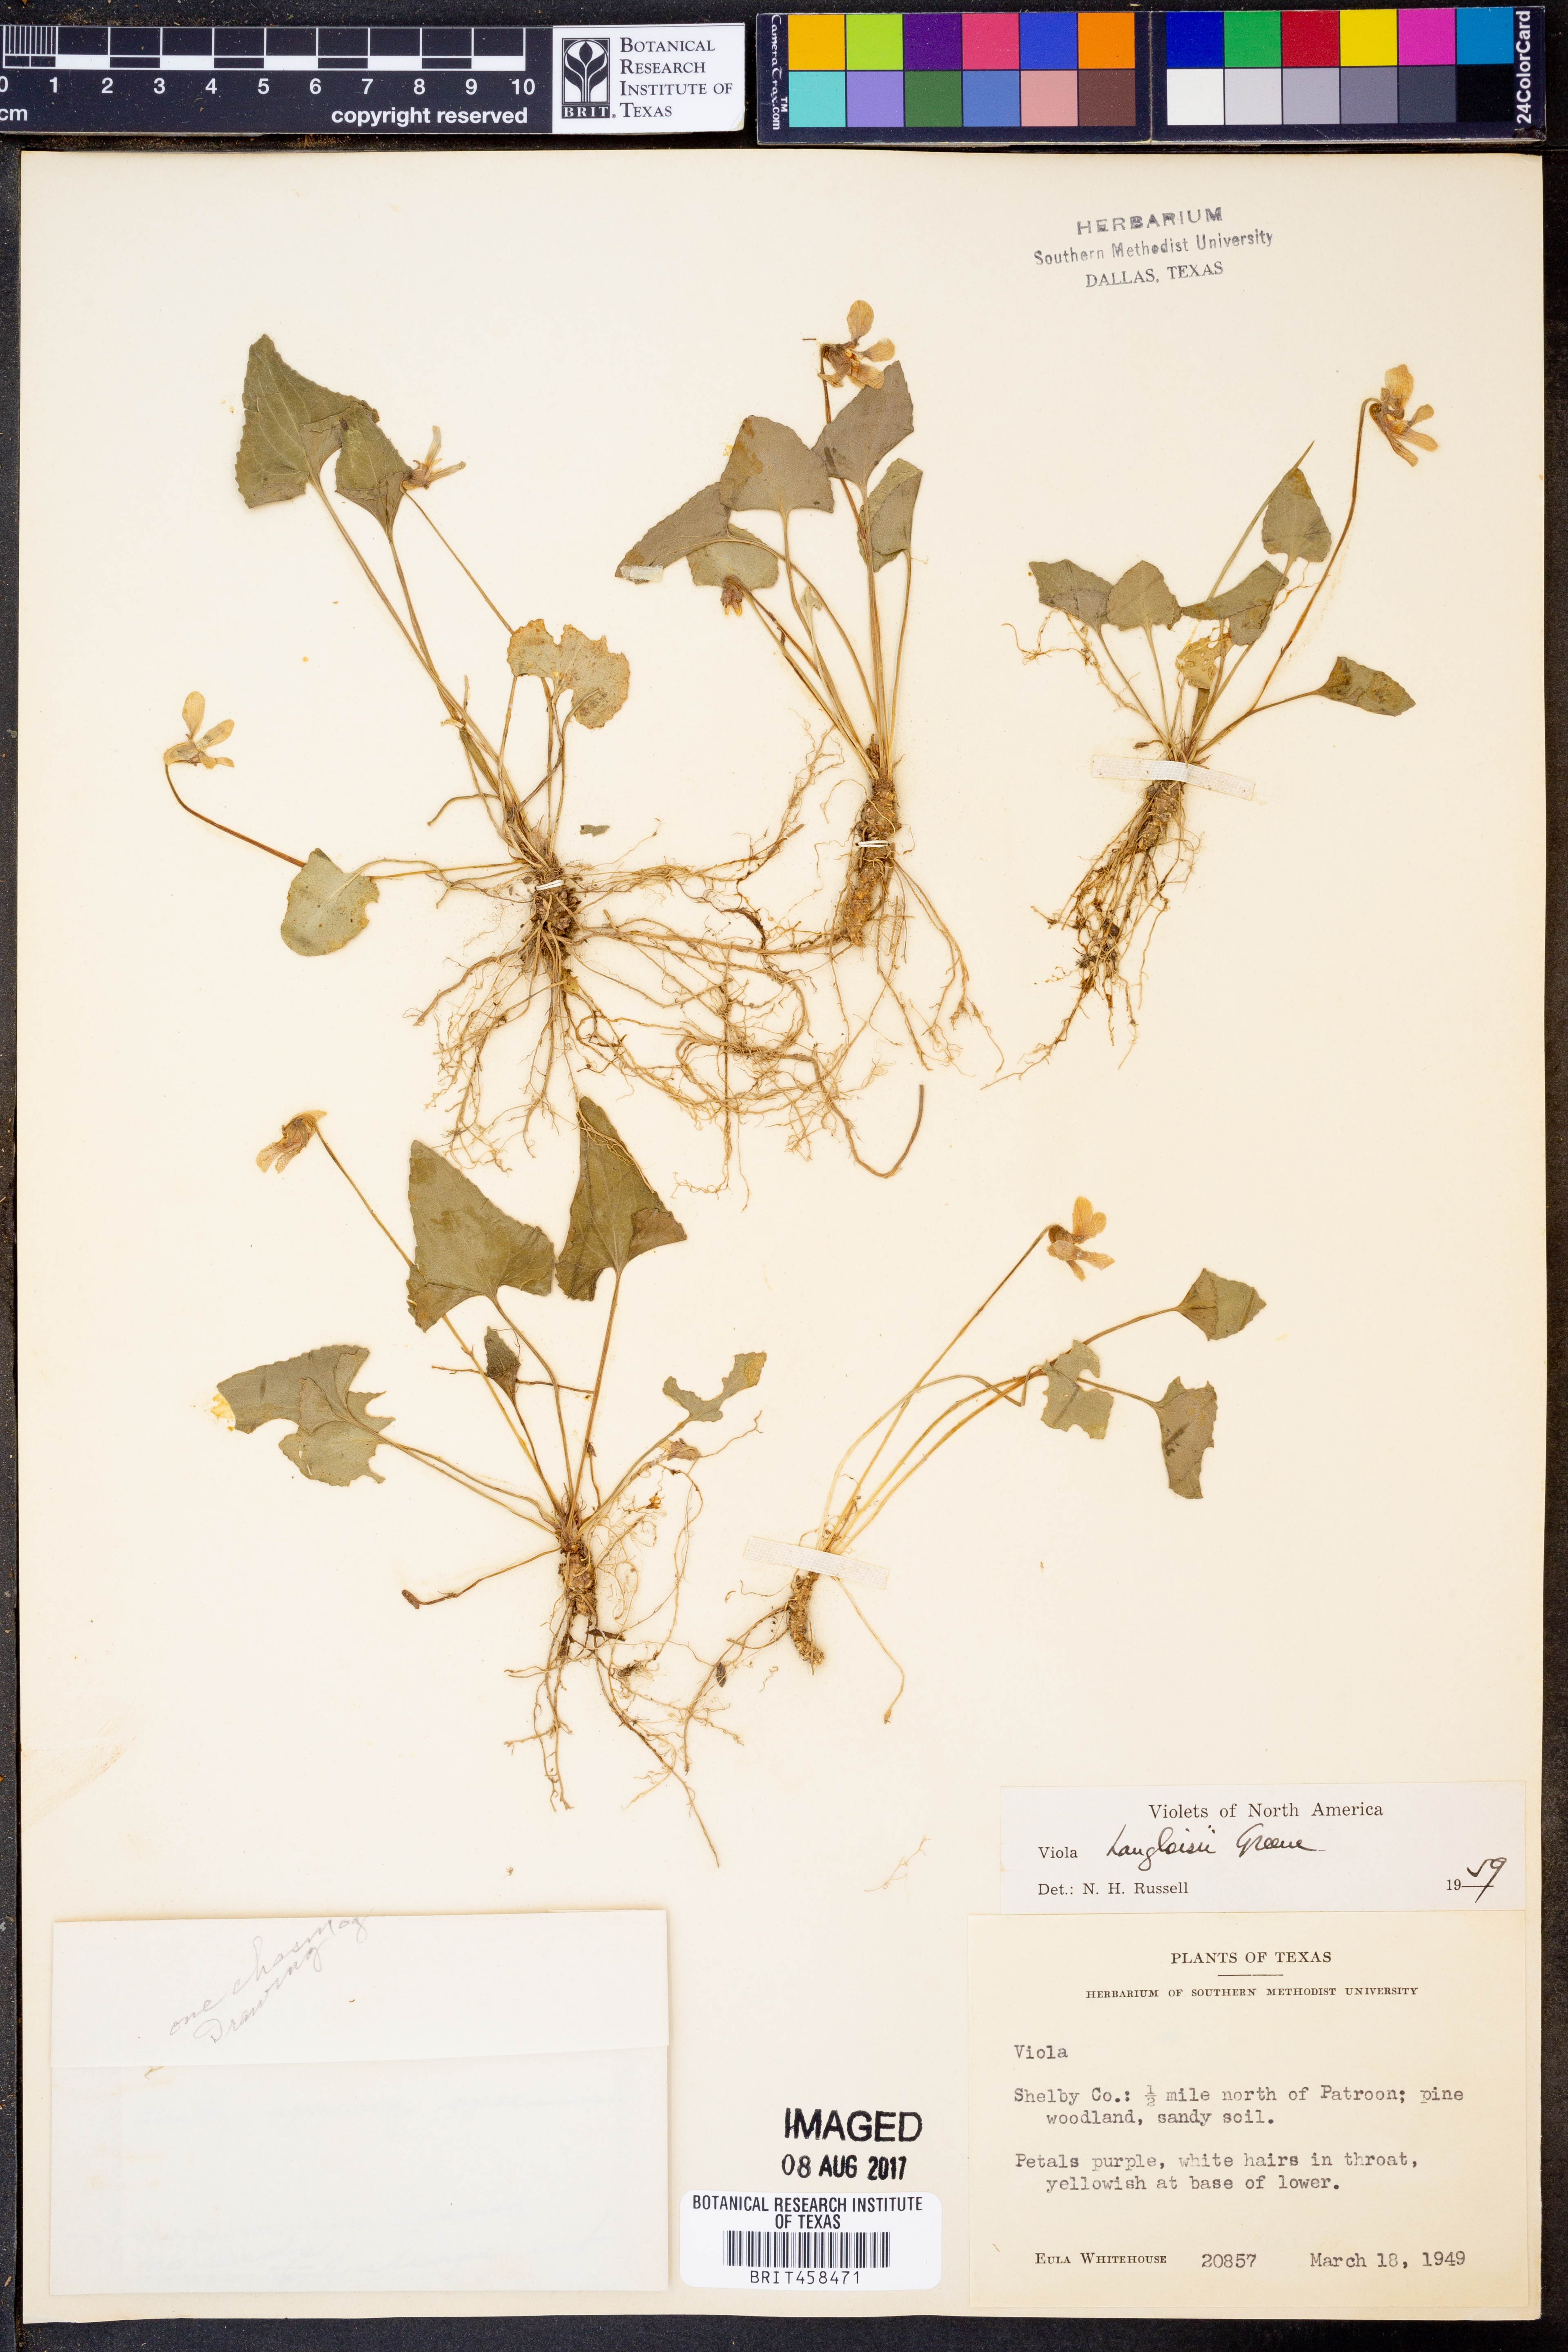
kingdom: Plantae
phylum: Tracheophyta
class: Magnoliopsida
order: Malpighiales
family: Violaceae
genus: Viola
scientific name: Viola langloisii
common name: Langlois' violet
